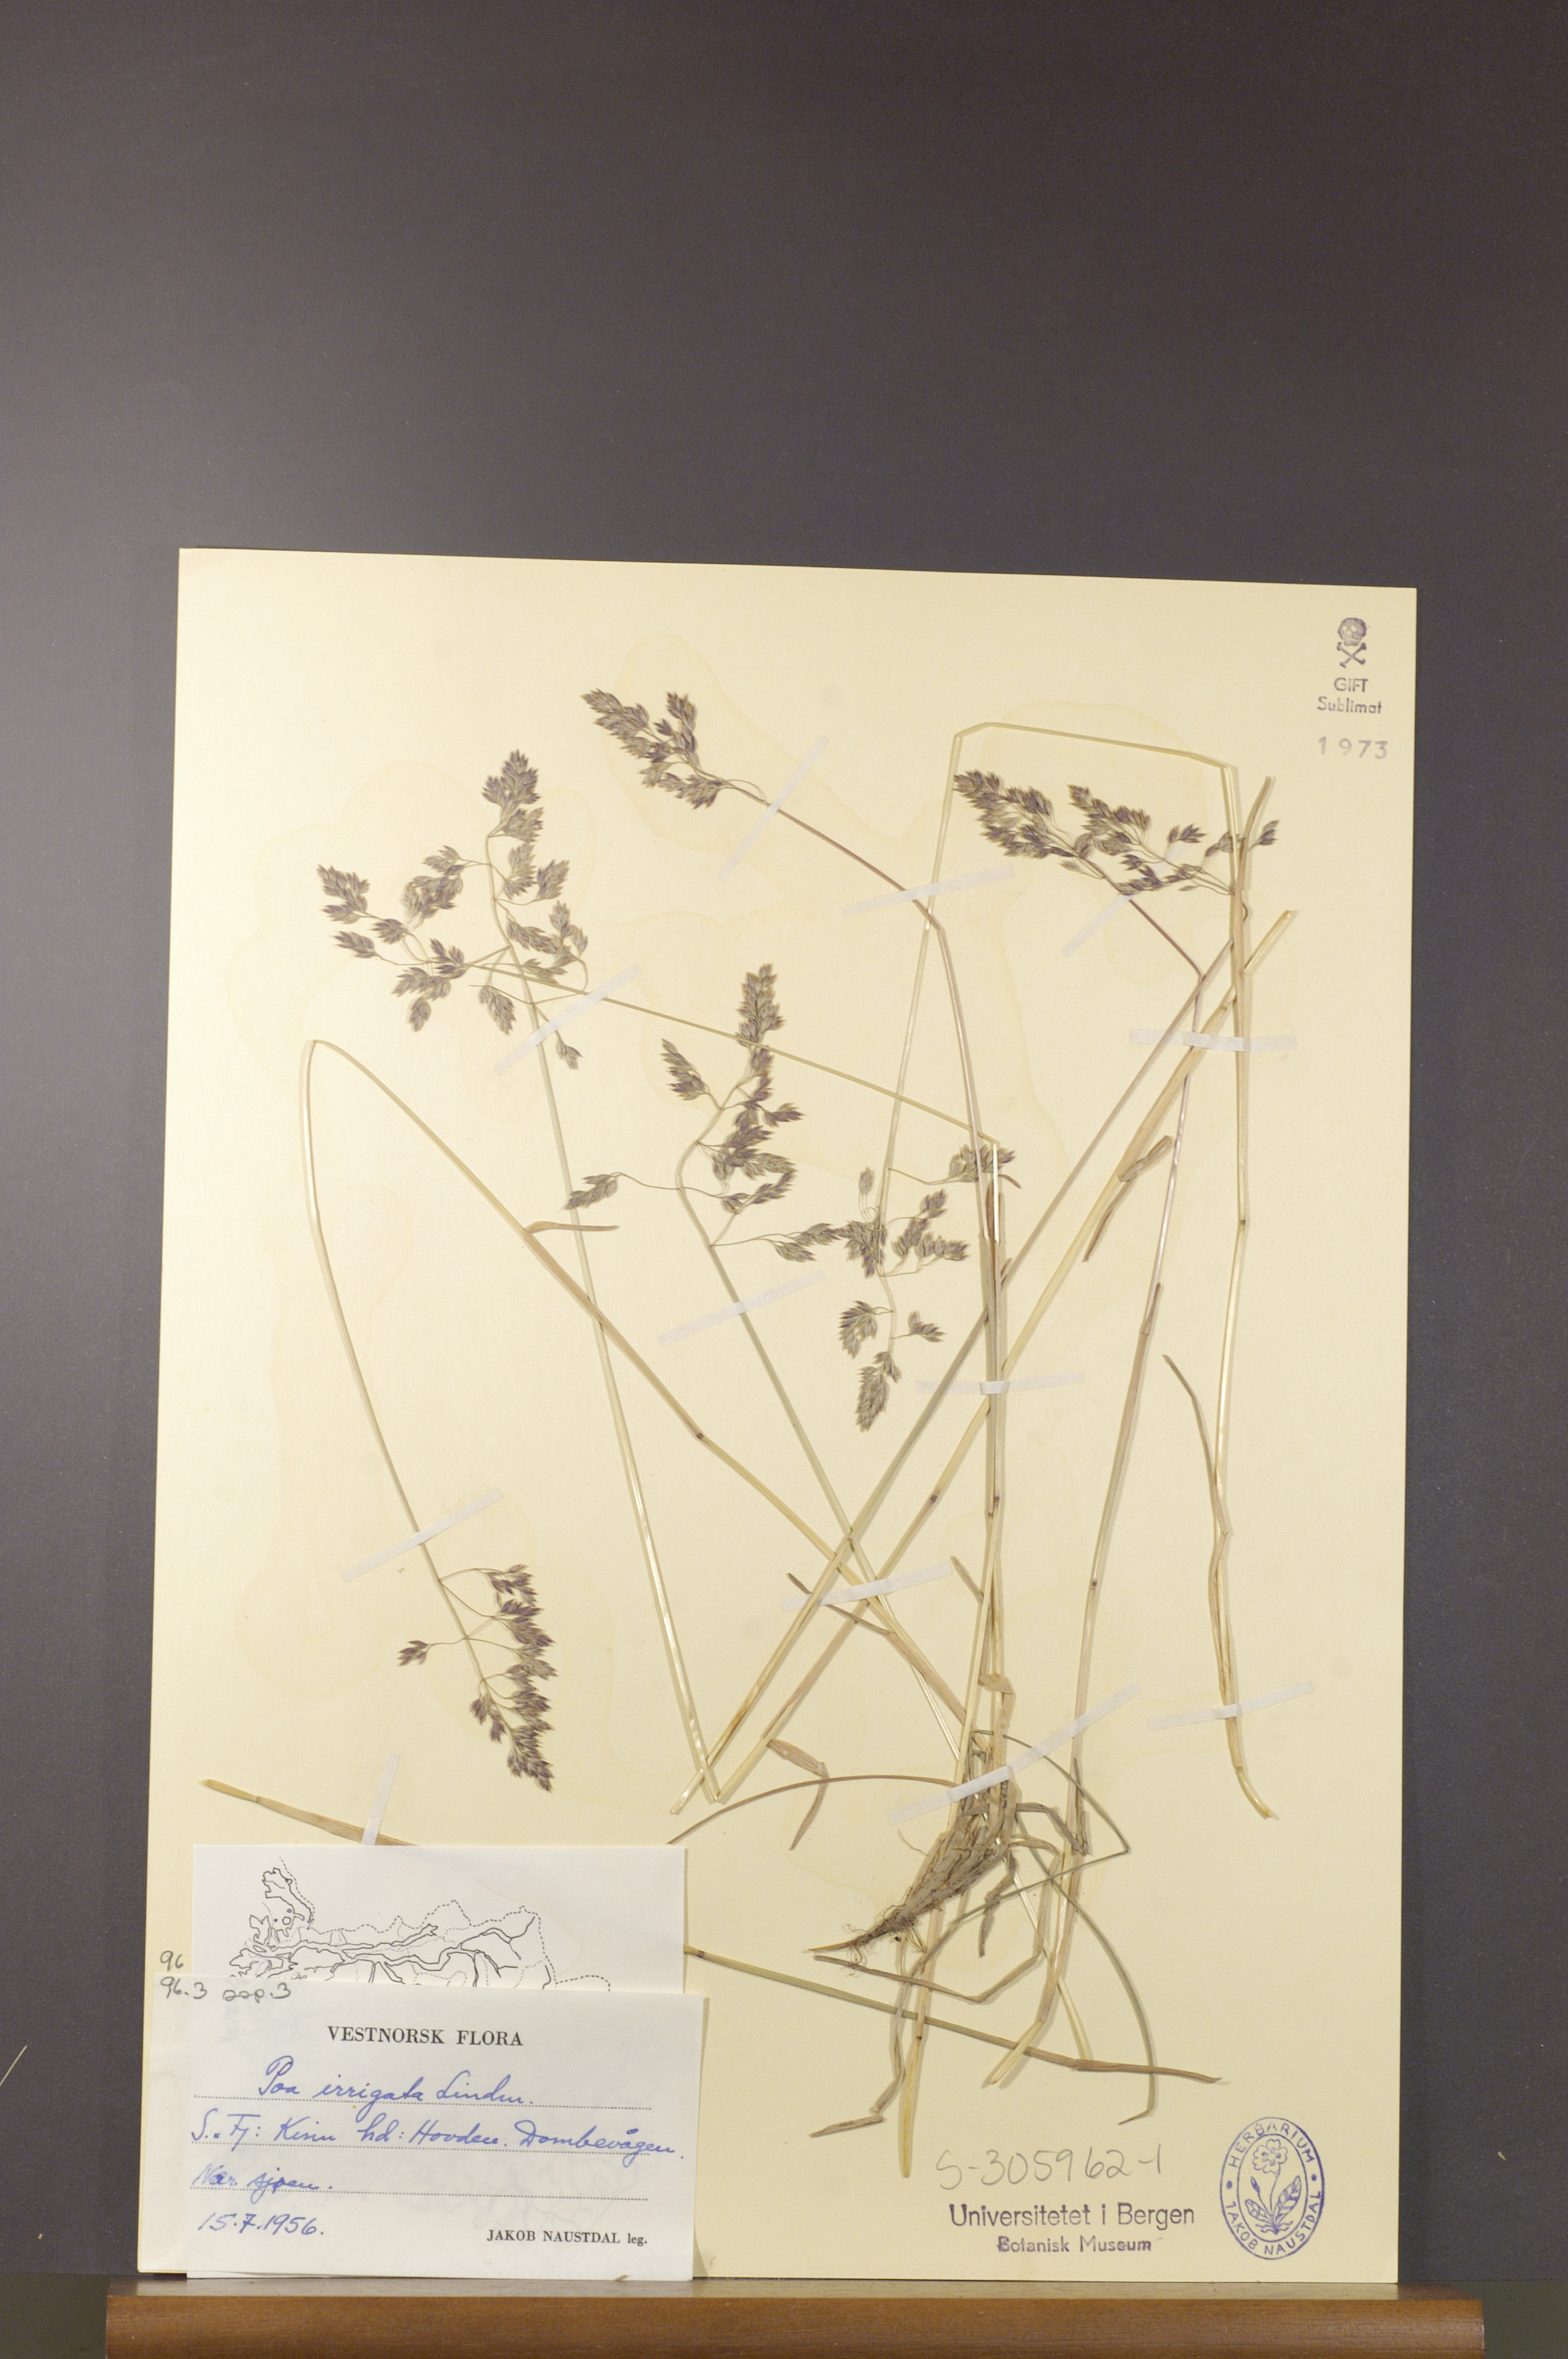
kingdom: Plantae
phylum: Tracheophyta
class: Liliopsida
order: Poales
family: Poaceae
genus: Poa
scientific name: Poa humilis
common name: Spreading meadow-grass
